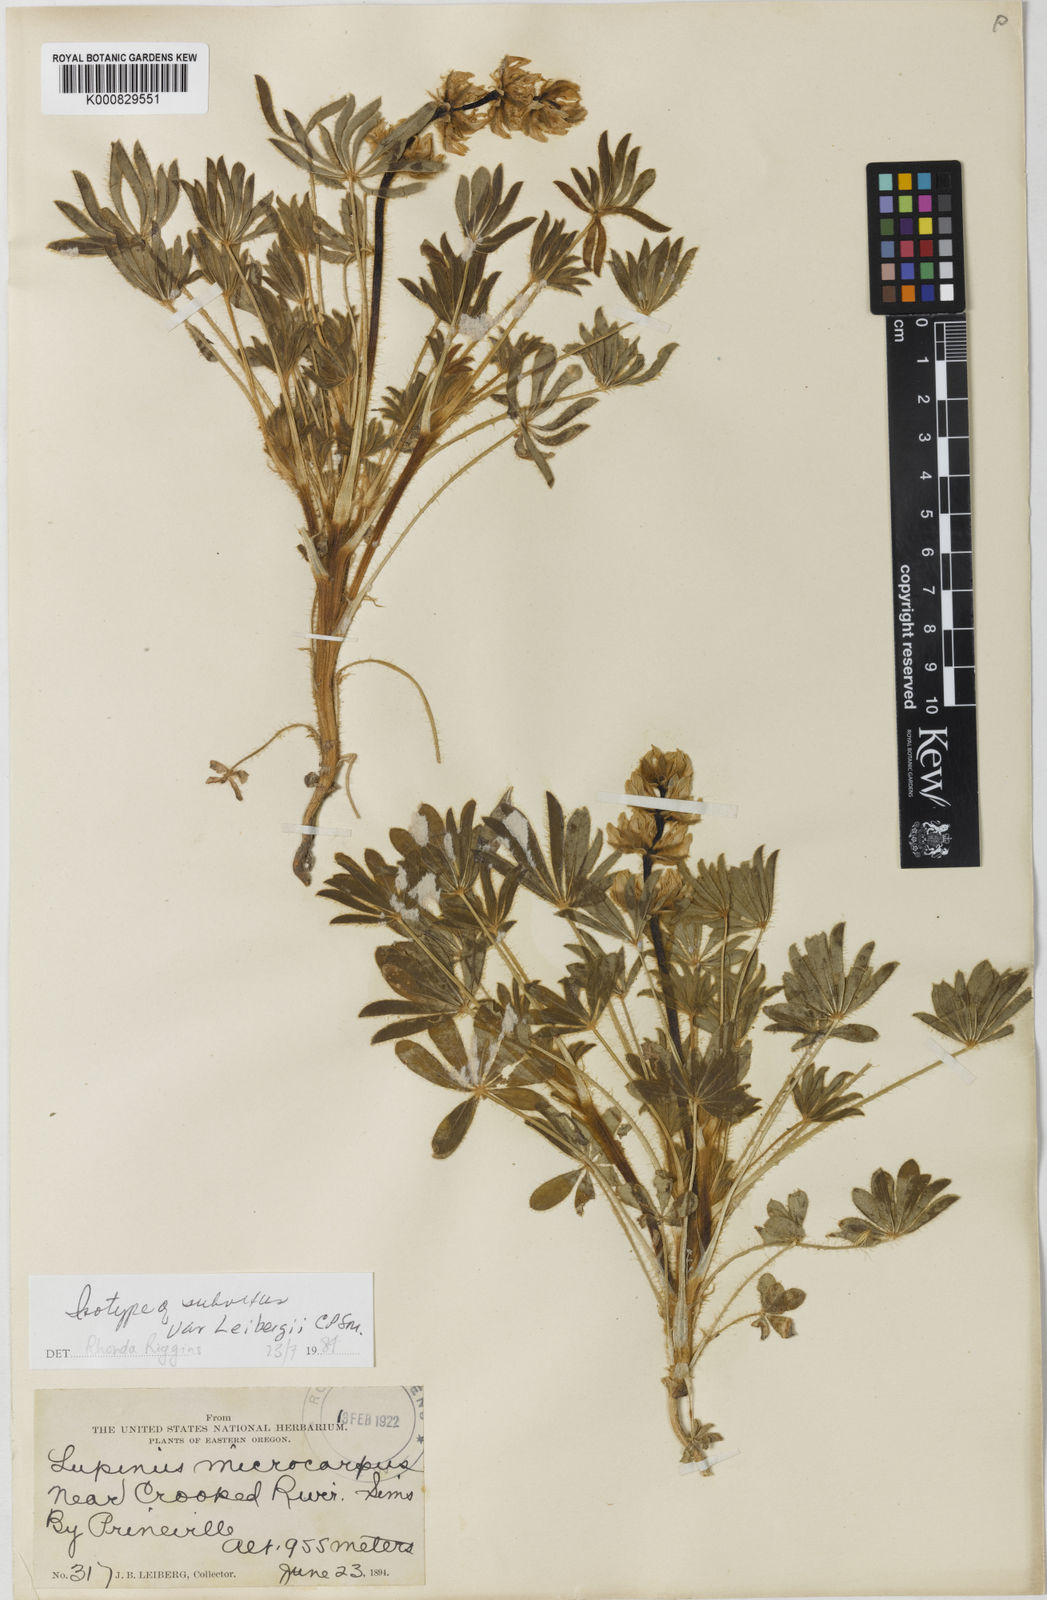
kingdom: Plantae
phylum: Tracheophyta
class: Magnoliopsida
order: Fabales
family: Fabaceae
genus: Lupinus
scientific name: Lupinus subvexus
